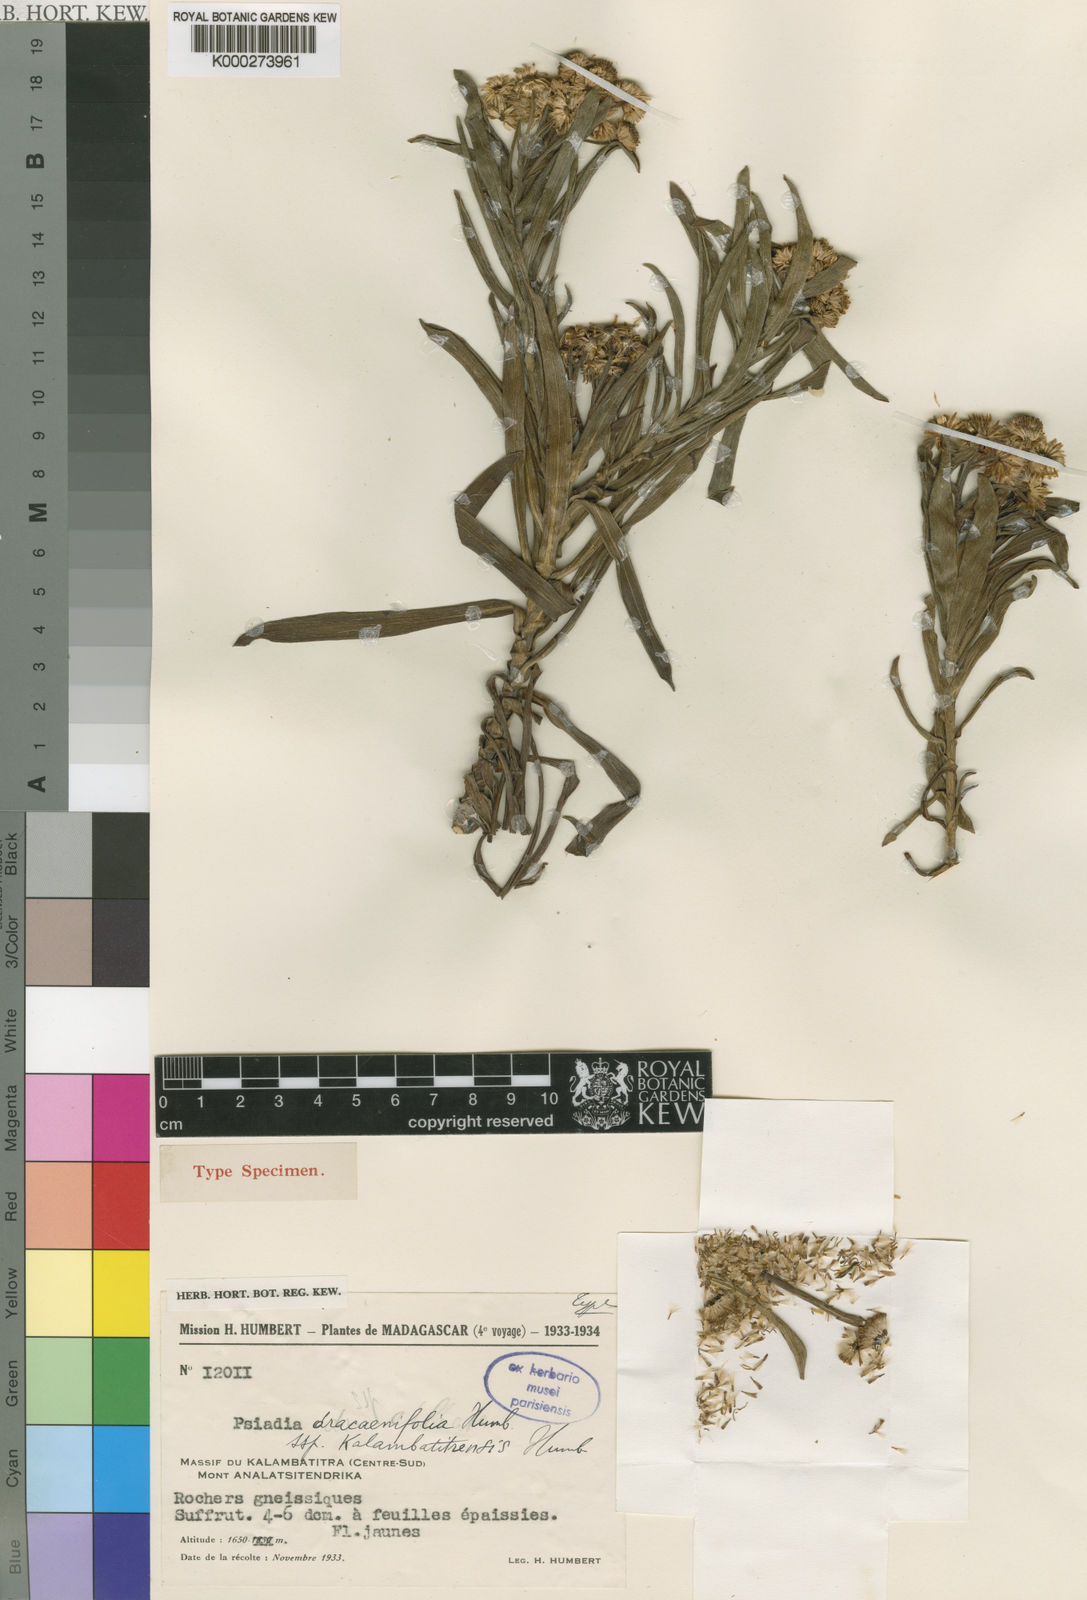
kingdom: Plantae
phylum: Tracheophyta
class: Magnoliopsida
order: Asterales
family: Asteraceae
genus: Psiadia
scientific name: Psiadia dracaenifolia
